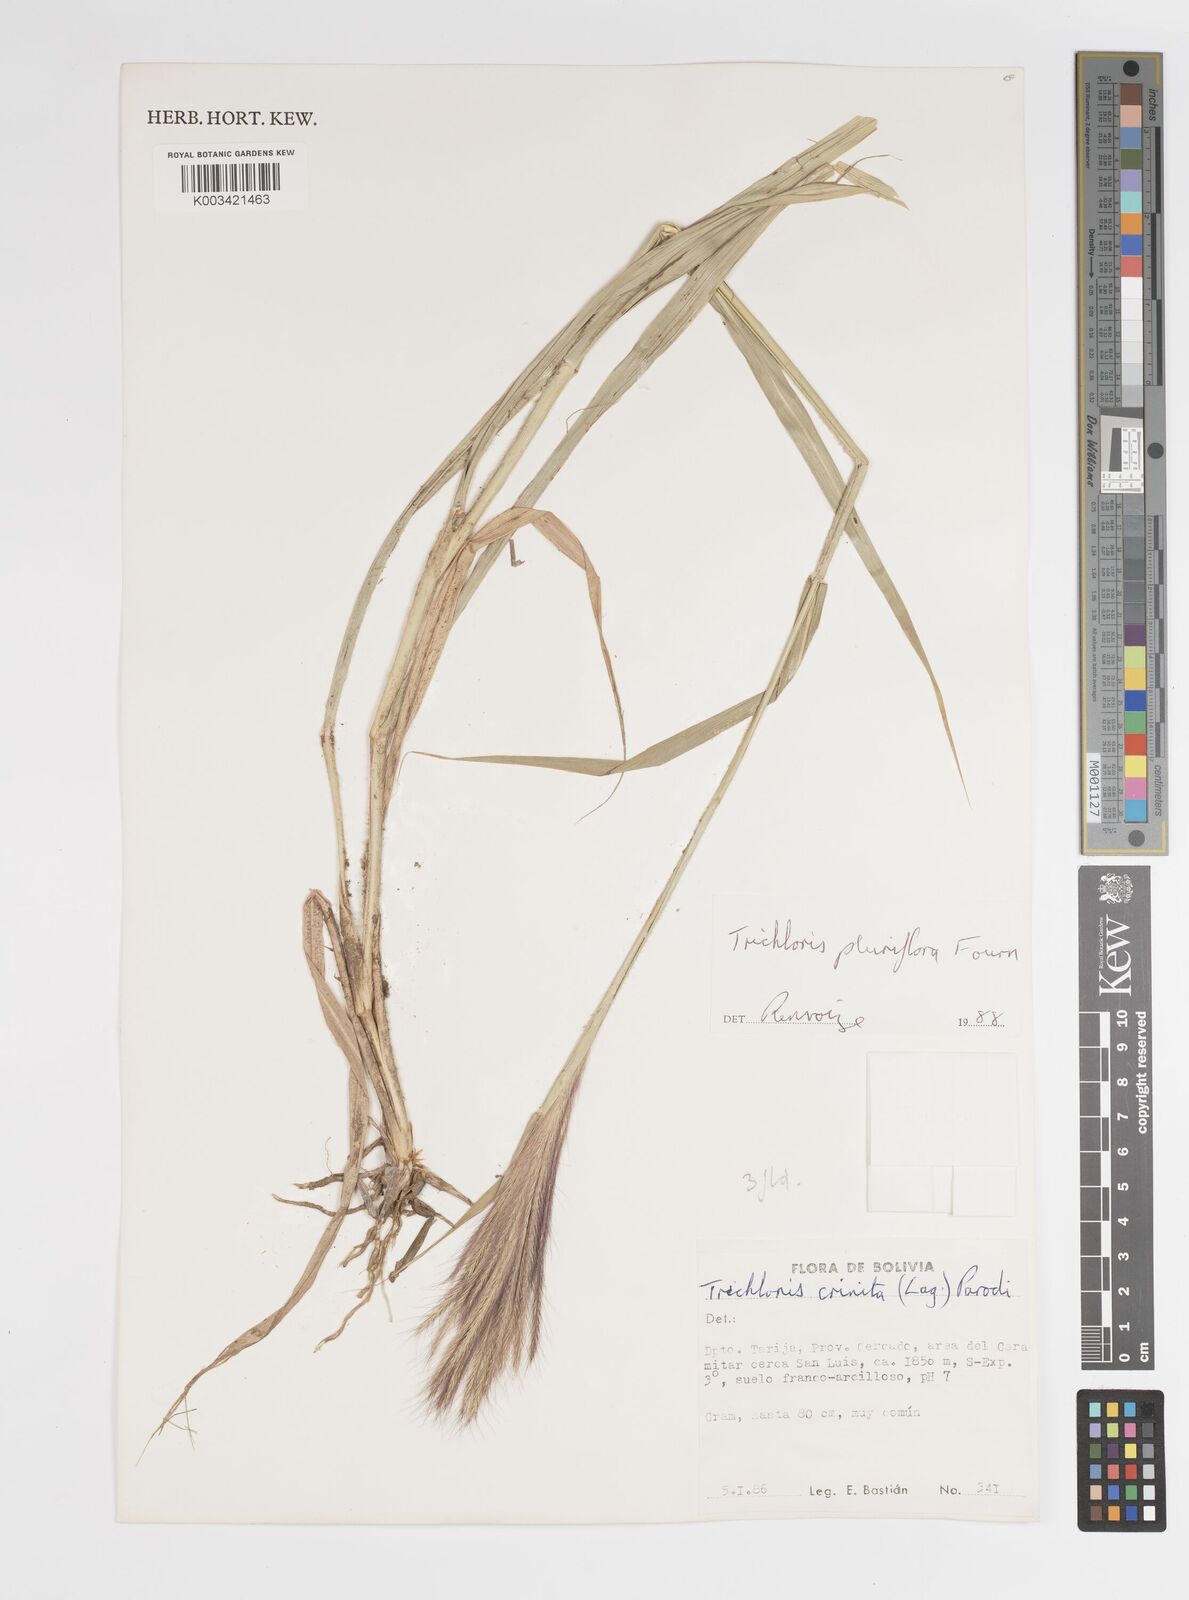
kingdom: Plantae
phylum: Tracheophyta
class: Liliopsida
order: Poales
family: Poaceae
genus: Leptochloa
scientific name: Leptochloa pluriflora
